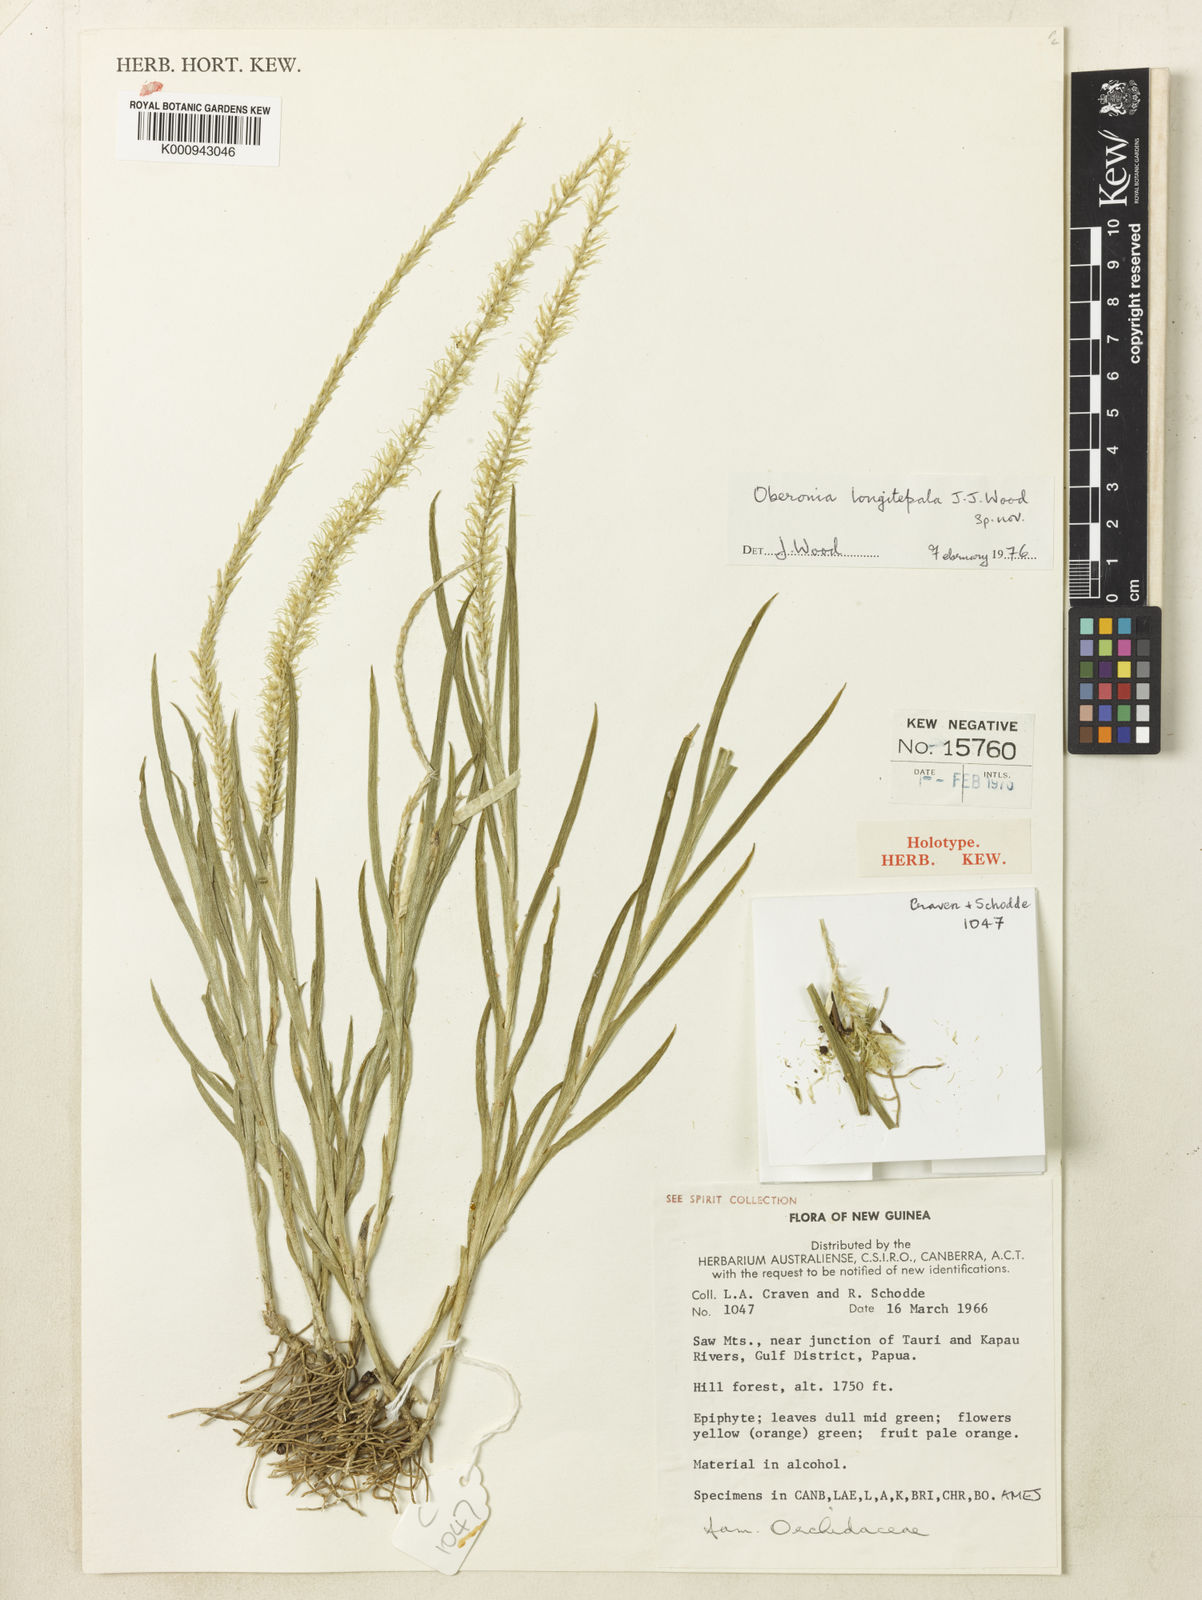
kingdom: Plantae
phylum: Tracheophyta
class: Liliopsida
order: Asparagales
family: Orchidaceae
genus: Oberonia
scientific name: Oberonia longitepala
